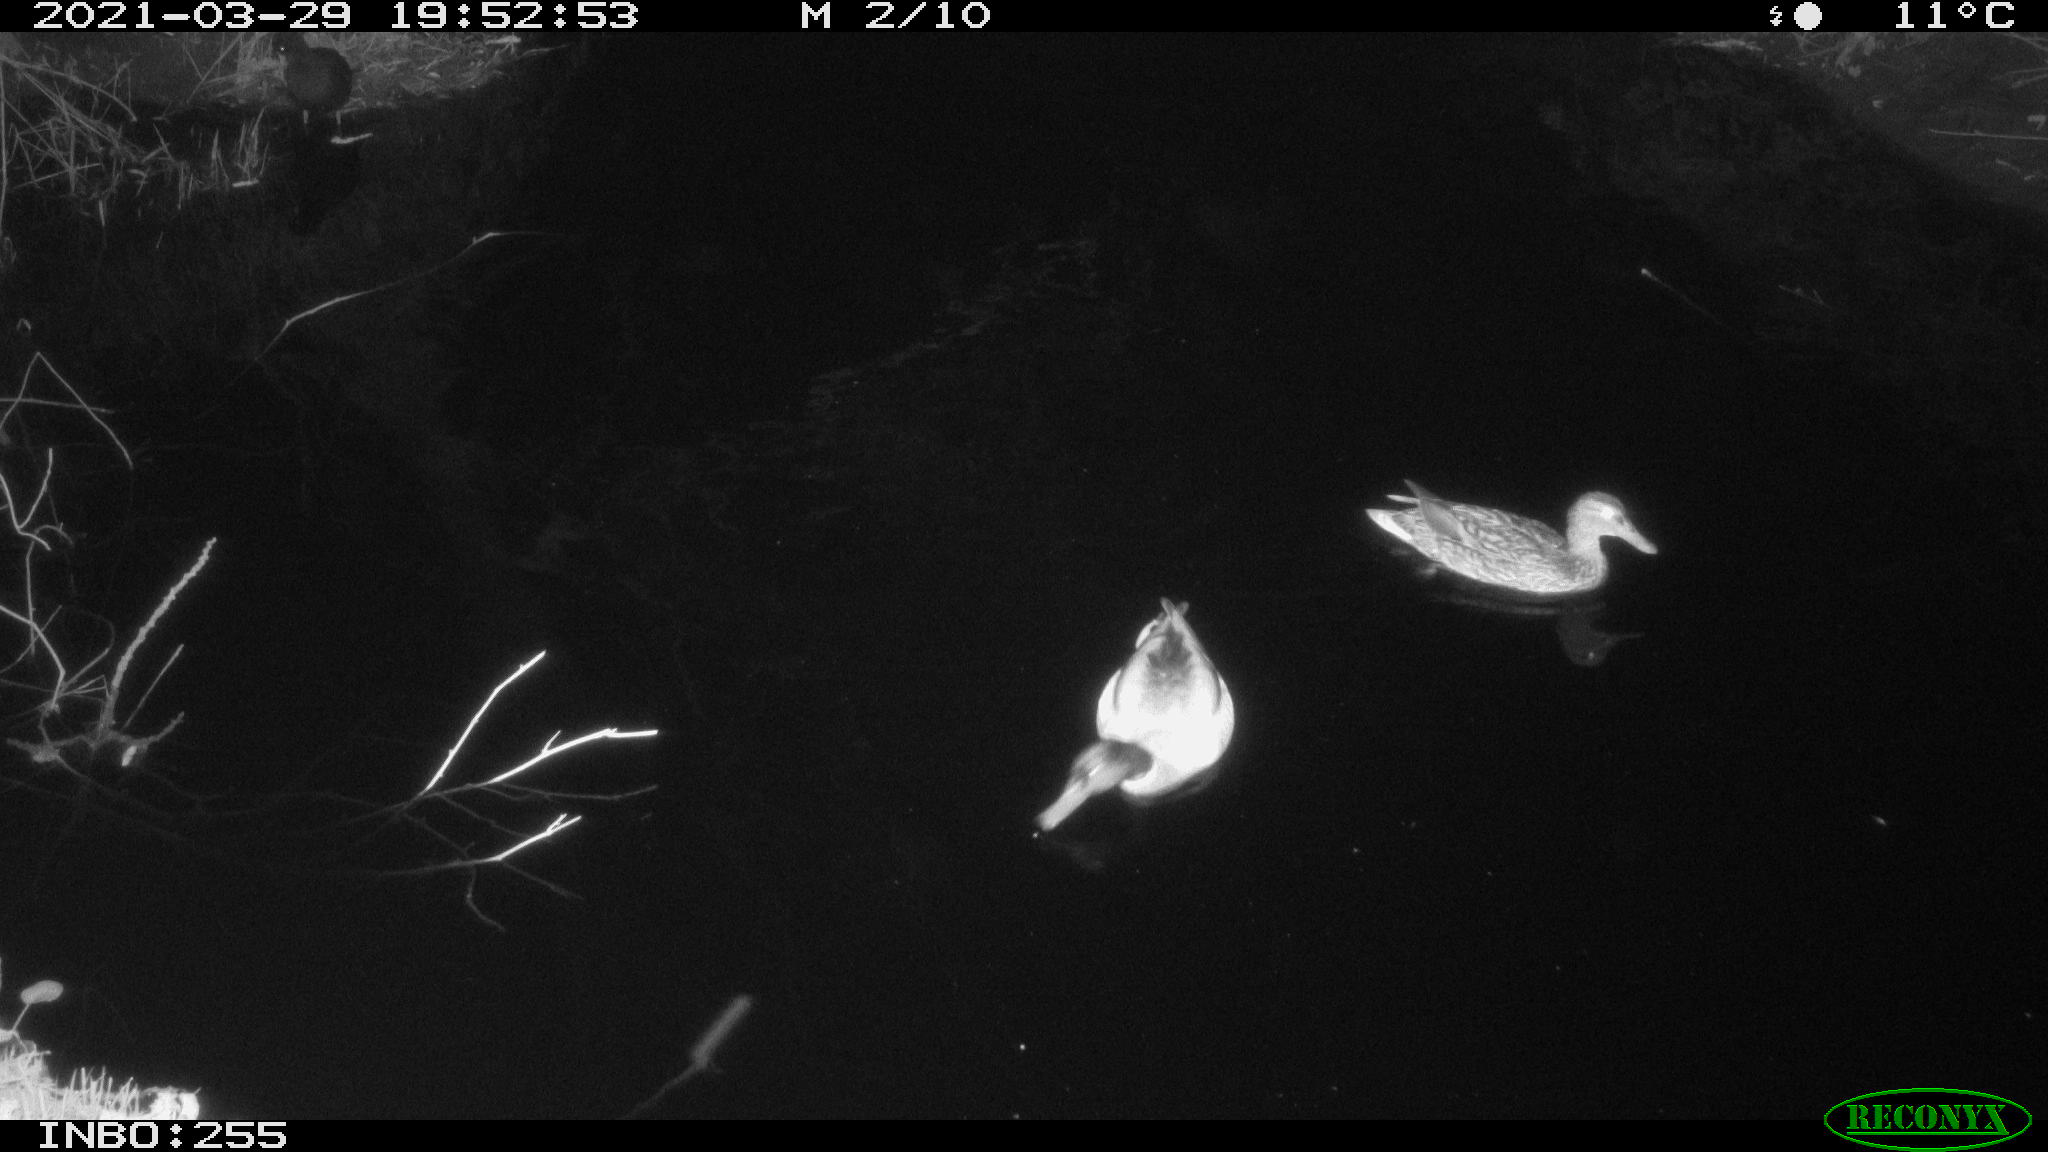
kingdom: Animalia
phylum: Chordata
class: Aves
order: Anseriformes
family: Anatidae
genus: Anas
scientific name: Anas platyrhynchos
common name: Mallard
